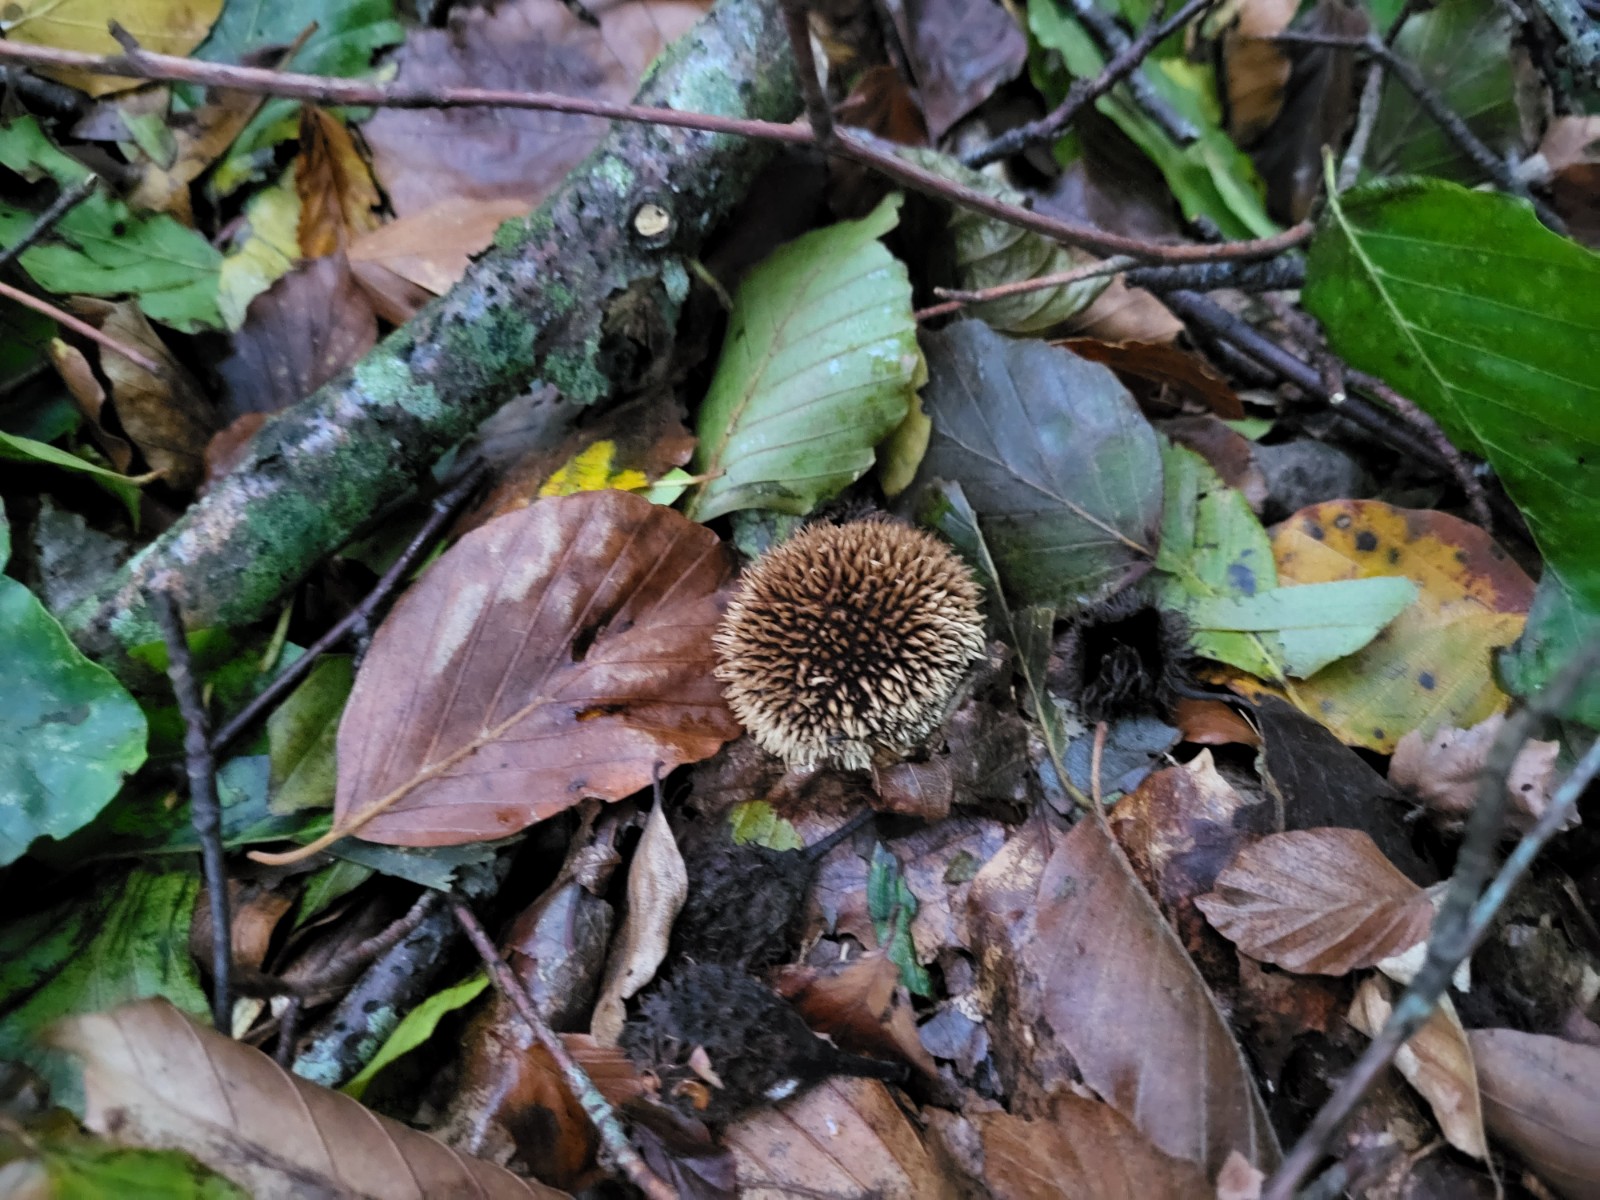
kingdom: Fungi
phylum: Basidiomycota
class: Agaricomycetes
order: Agaricales
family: Lycoperdaceae
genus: Lycoperdon
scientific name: Lycoperdon echinatum
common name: pindsvine-støvbold
